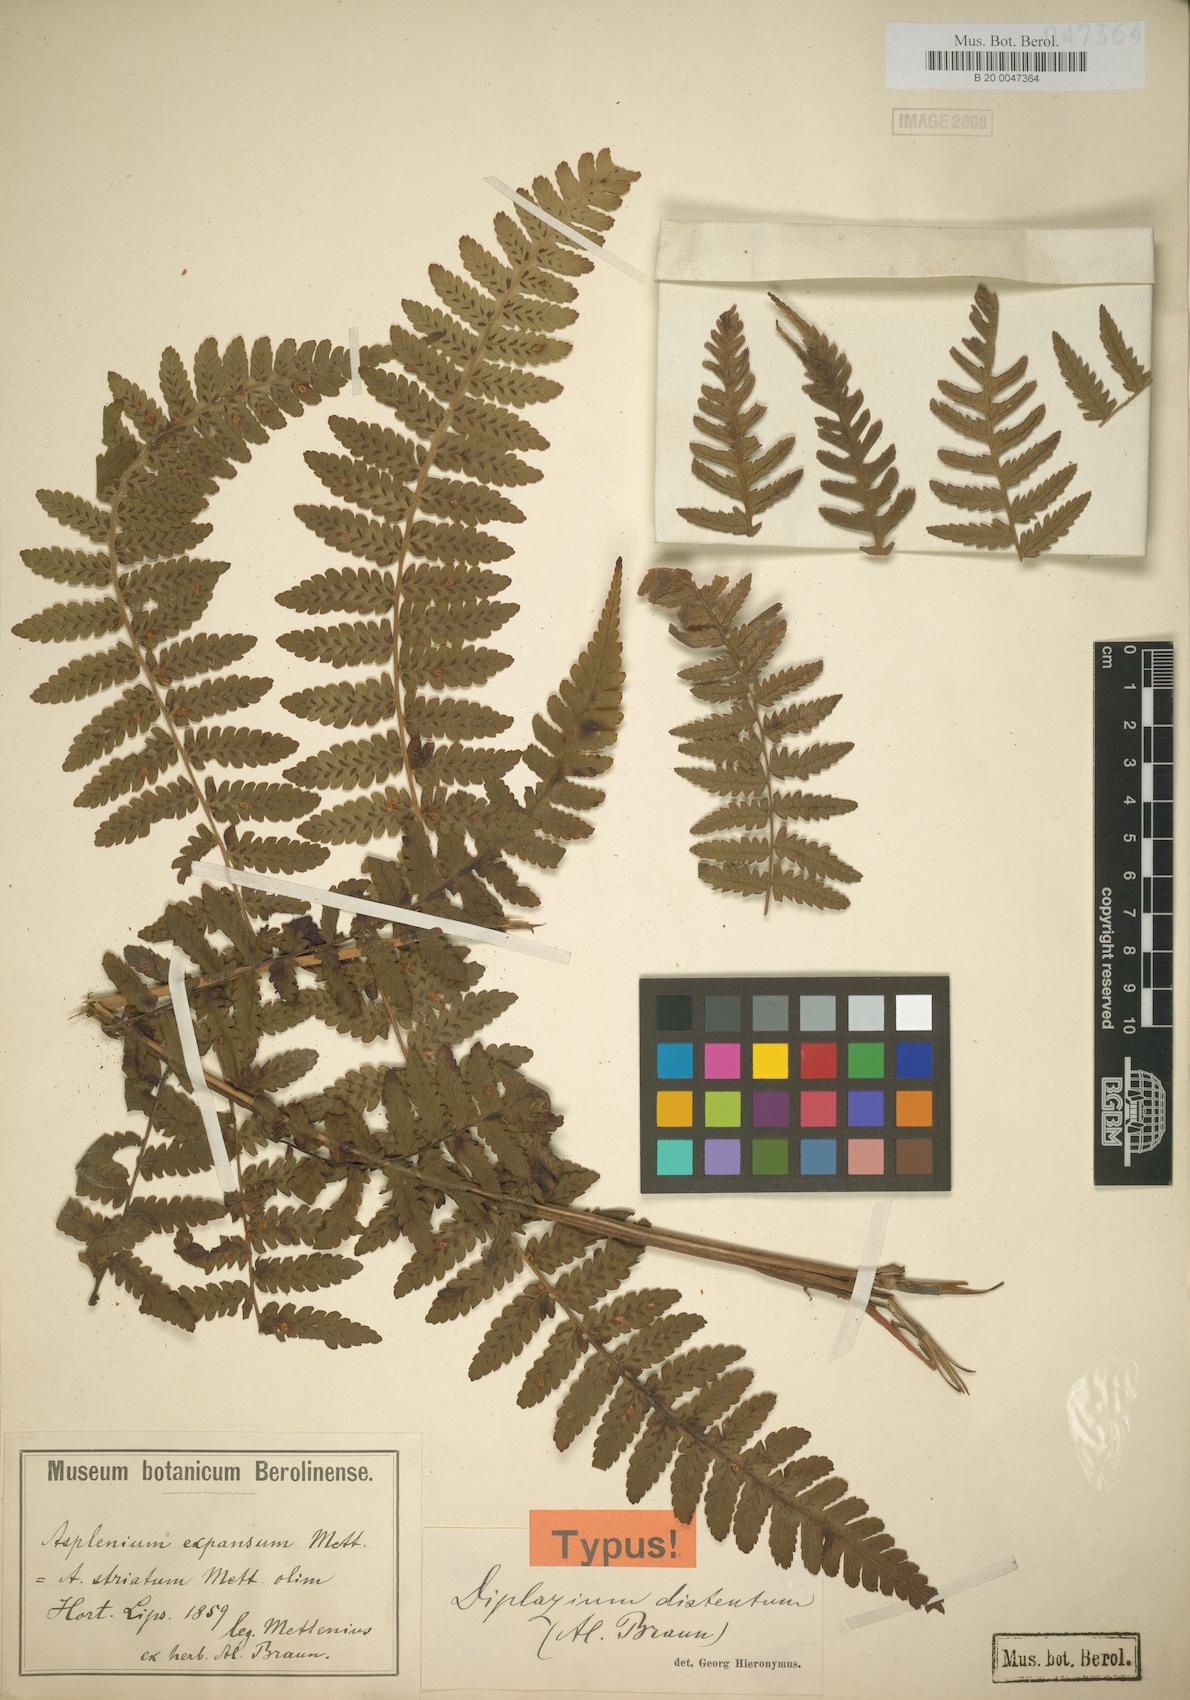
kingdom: Plantae
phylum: Tracheophyta
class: Polypodiopsida
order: Polypodiales
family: Athyriaceae
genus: Diplazium
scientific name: Diplazium expansum
